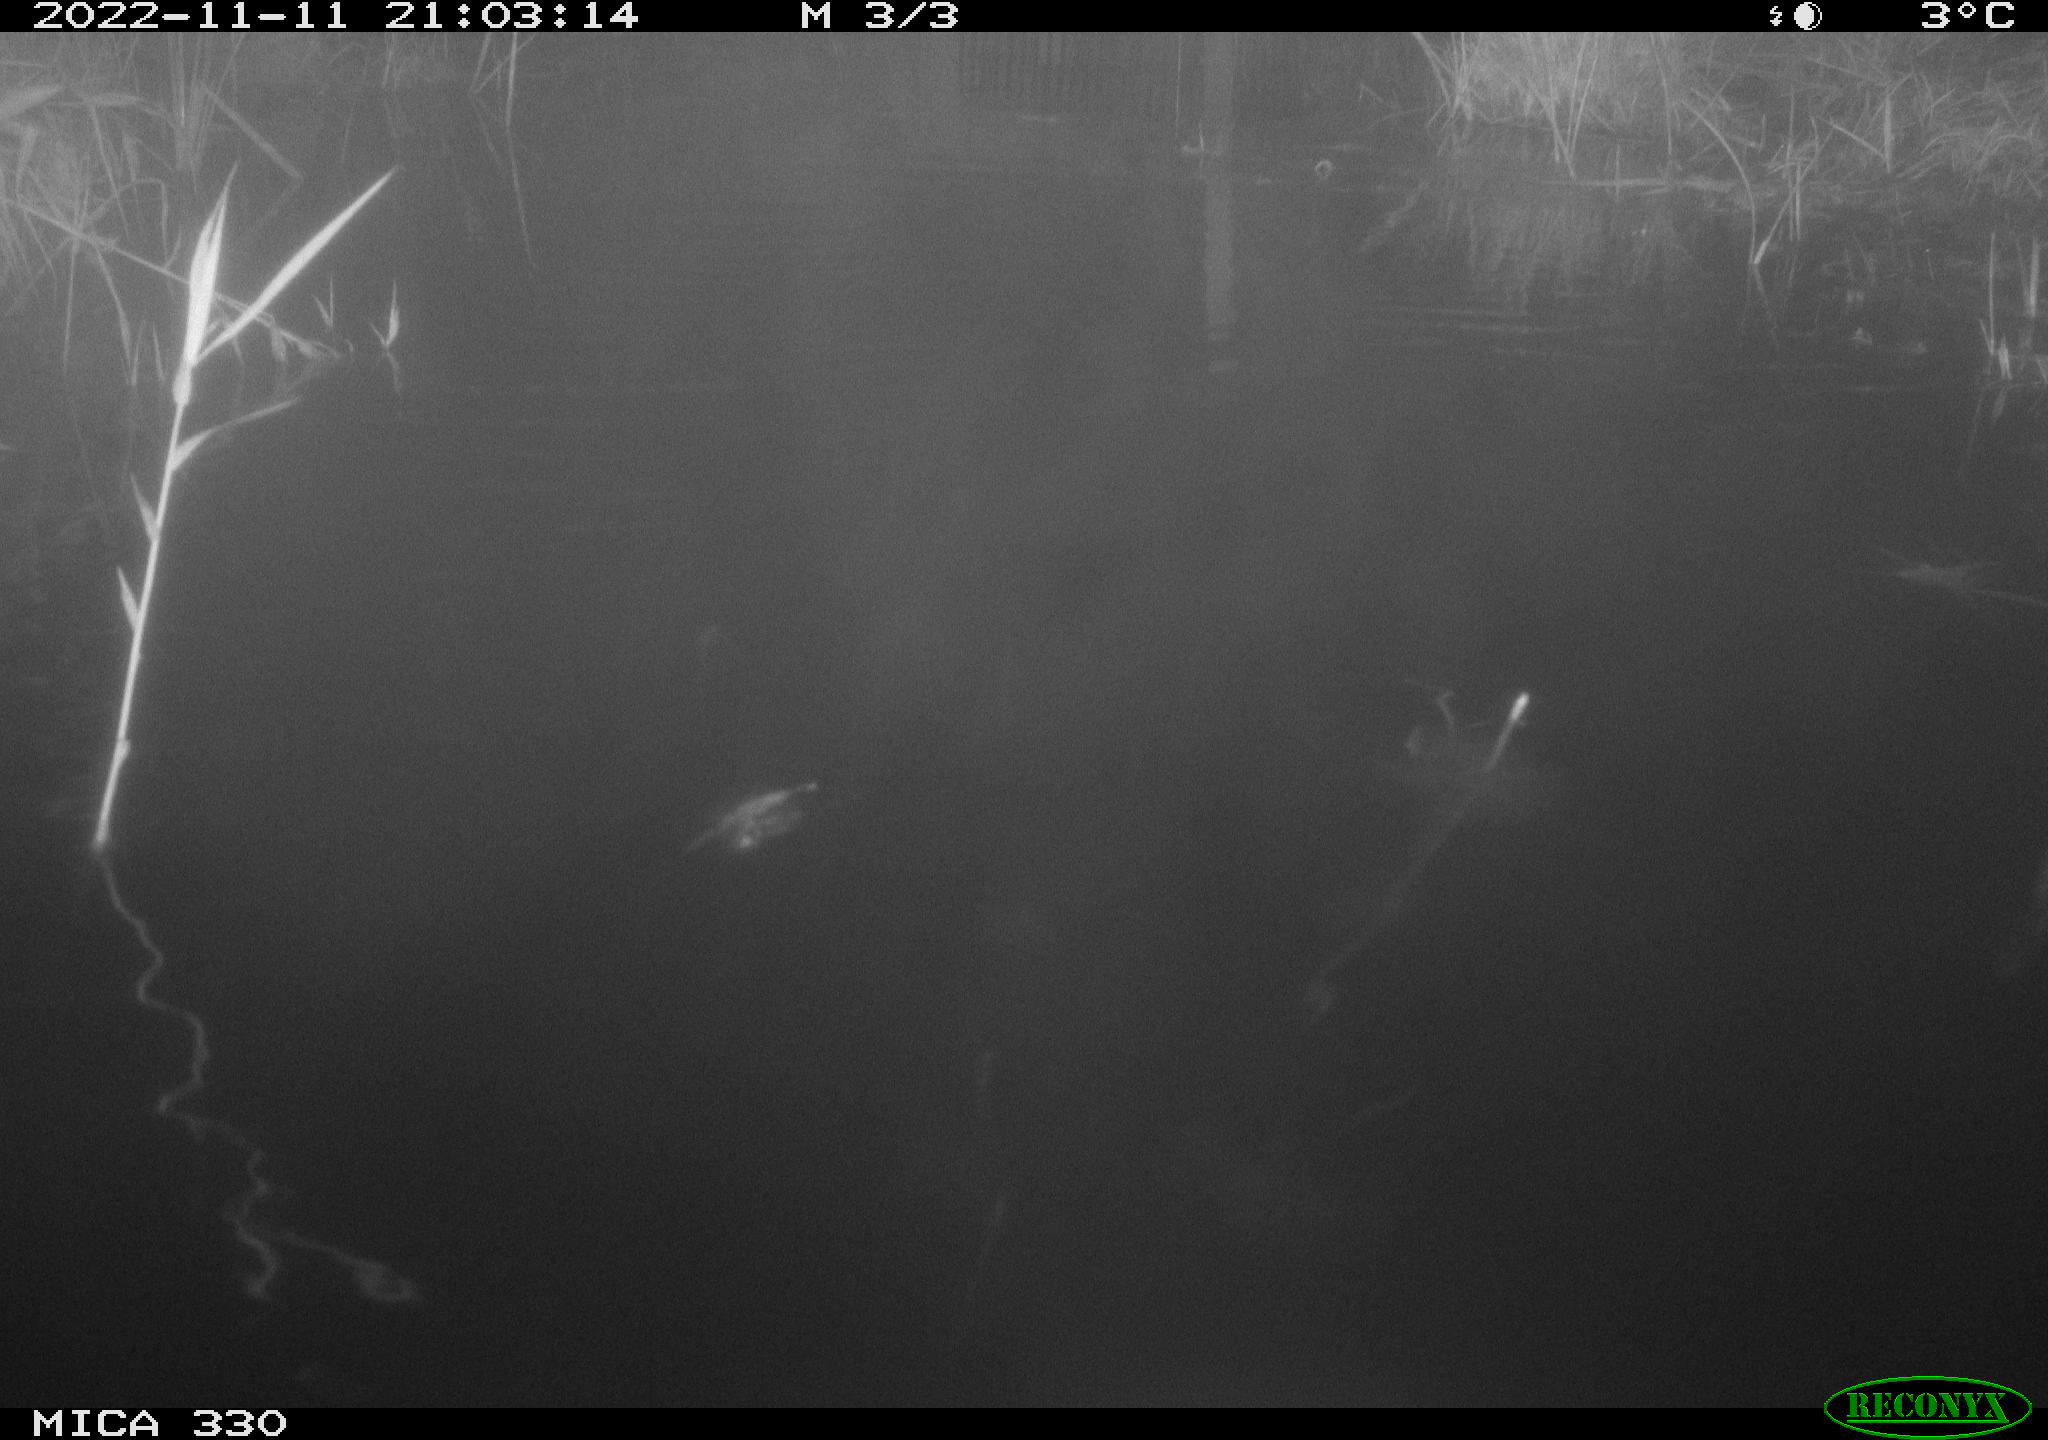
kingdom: Animalia
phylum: Chordata
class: Aves
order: Gruiformes
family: Rallidae
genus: Fulica
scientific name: Fulica atra
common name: Eurasian coot
